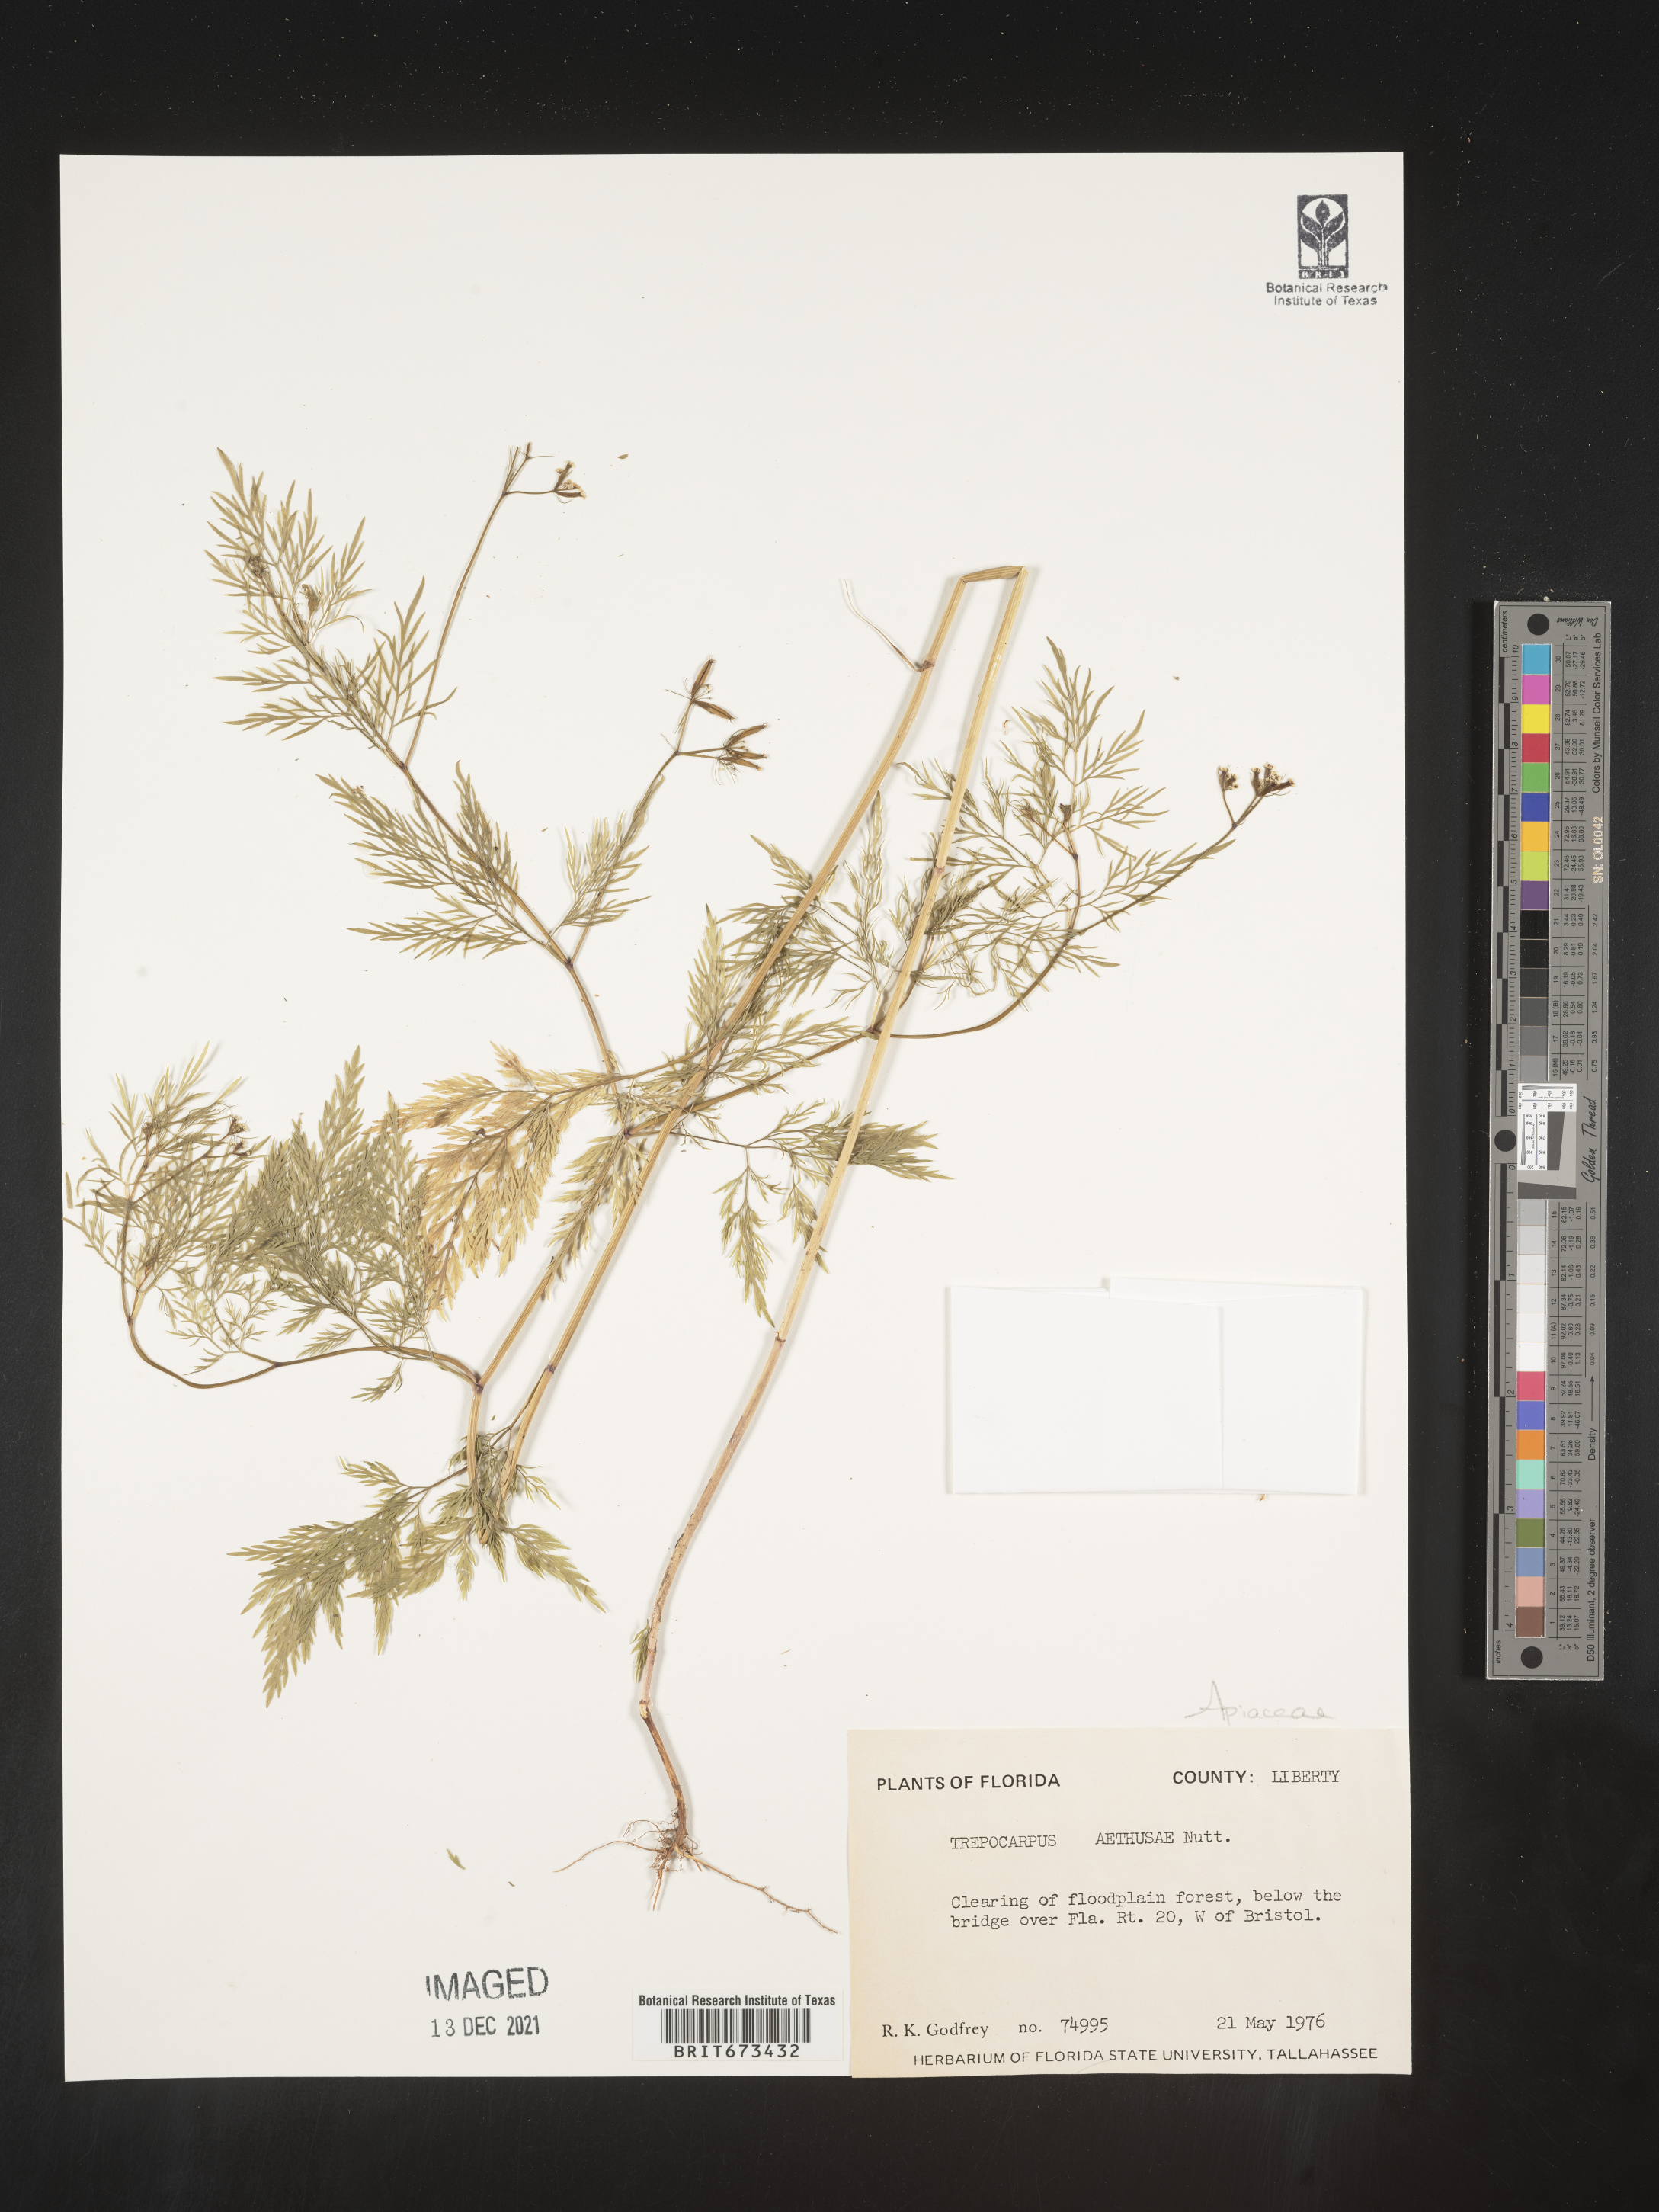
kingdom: Plantae
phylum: Tracheophyta
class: Magnoliopsida
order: Apiales
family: Apiaceae
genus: Trepocarpus
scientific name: Trepocarpus aethusae
